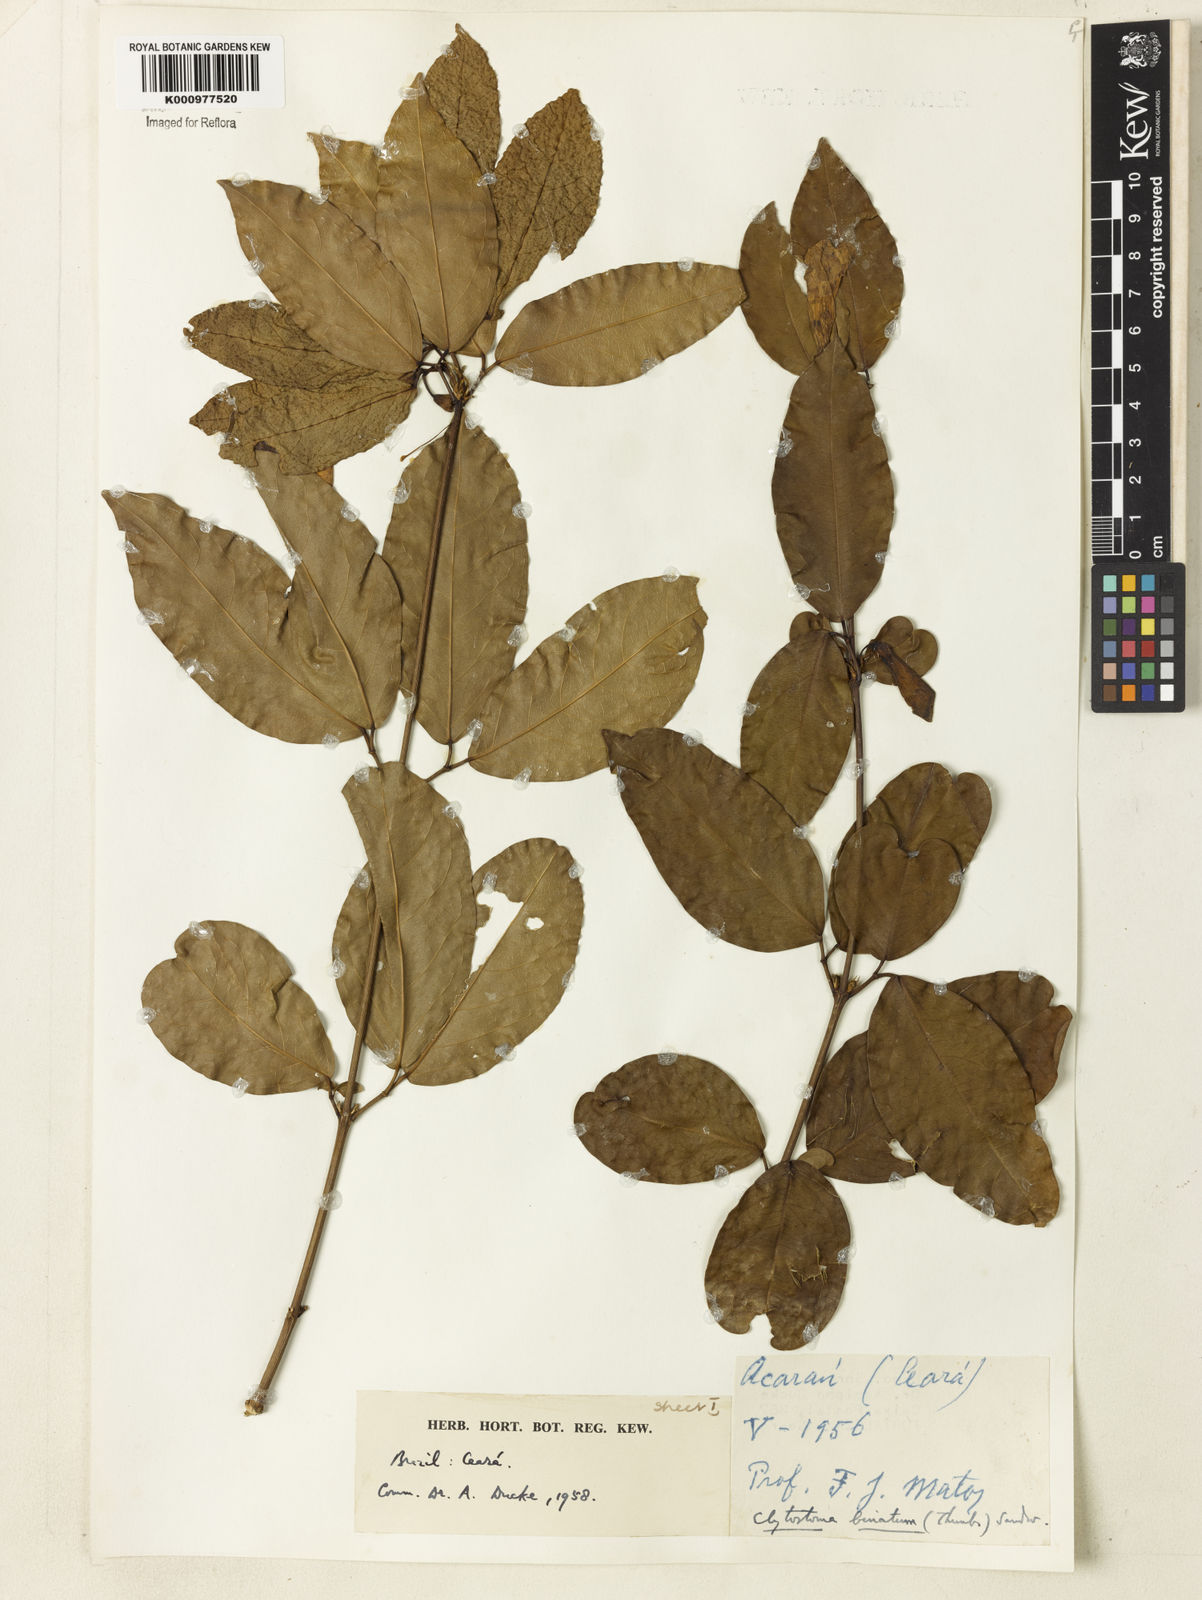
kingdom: Plantae
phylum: Tracheophyta
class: Magnoliopsida
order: Lamiales
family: Bignoniaceae
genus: Bignonia
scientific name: Bignonia binata
